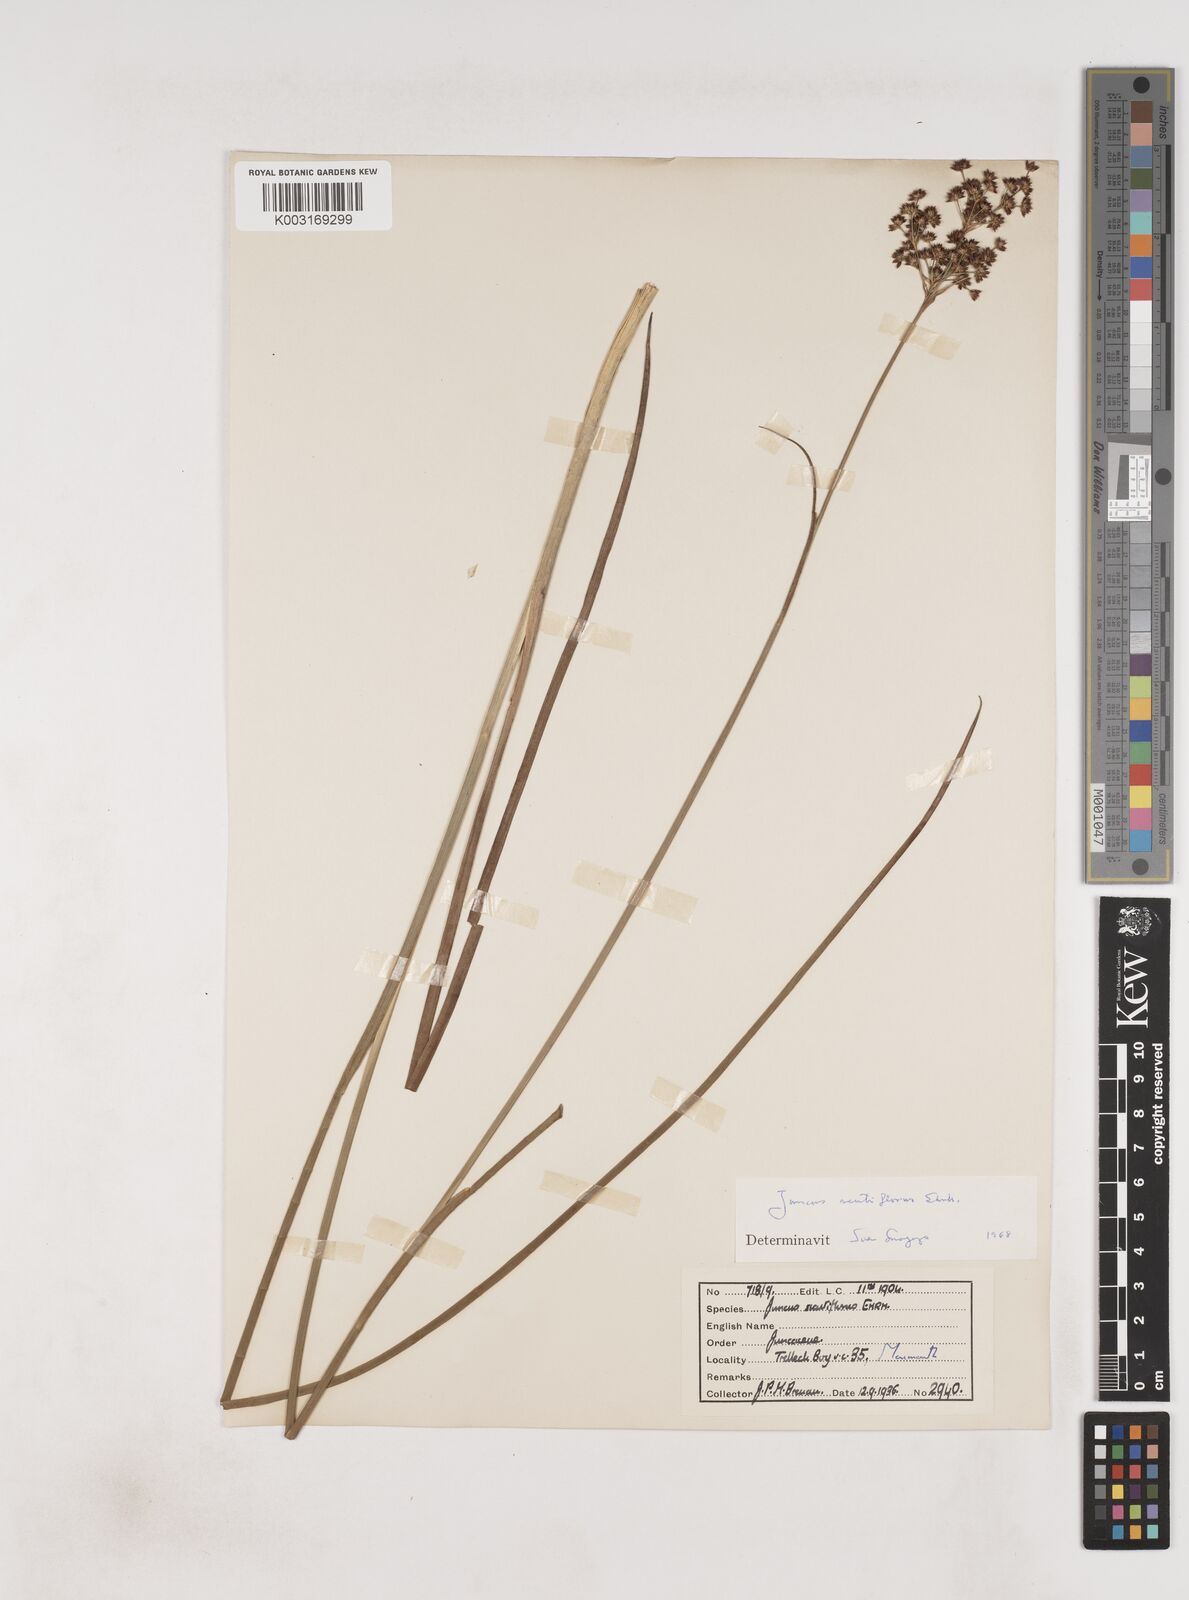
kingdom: Plantae
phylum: Tracheophyta
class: Liliopsida
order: Poales
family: Juncaceae
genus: Juncus
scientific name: Juncus acutiflorus
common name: Sharp-flowered rush
